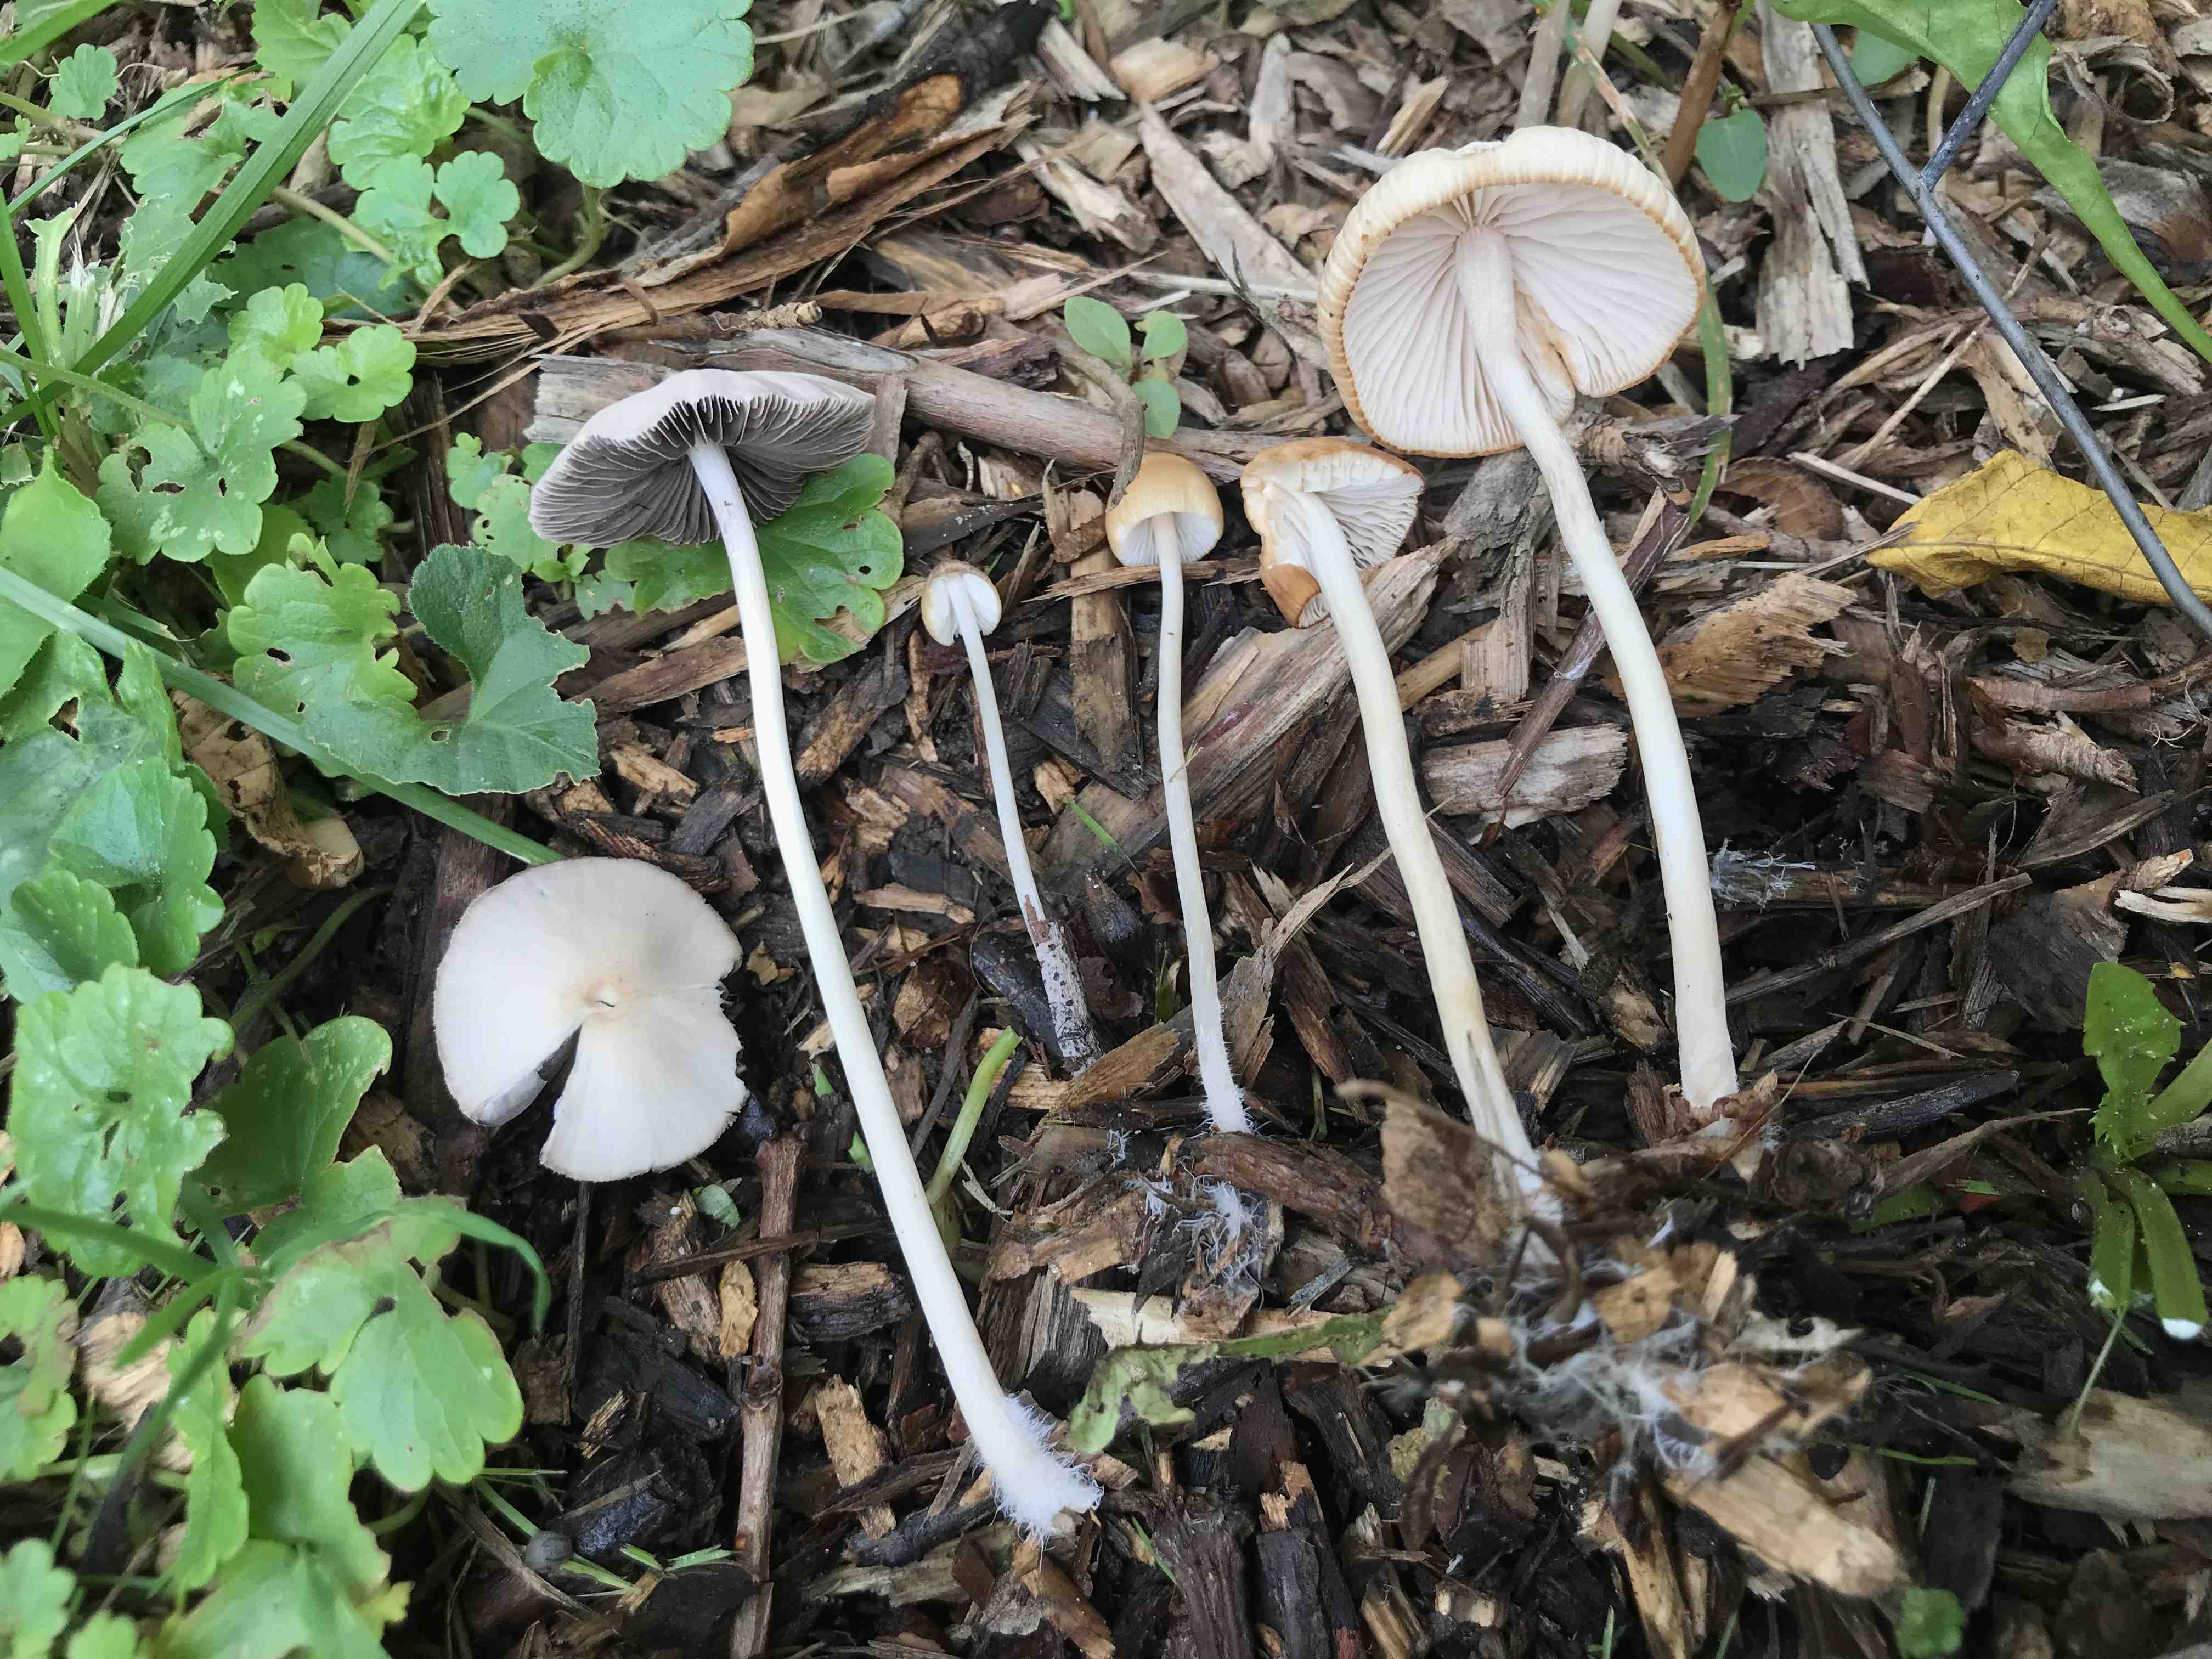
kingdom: Fungi
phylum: Basidiomycota
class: Agaricomycetes
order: Agaricales
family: Psathyrellaceae
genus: Psathyrella
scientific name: Psathyrella
